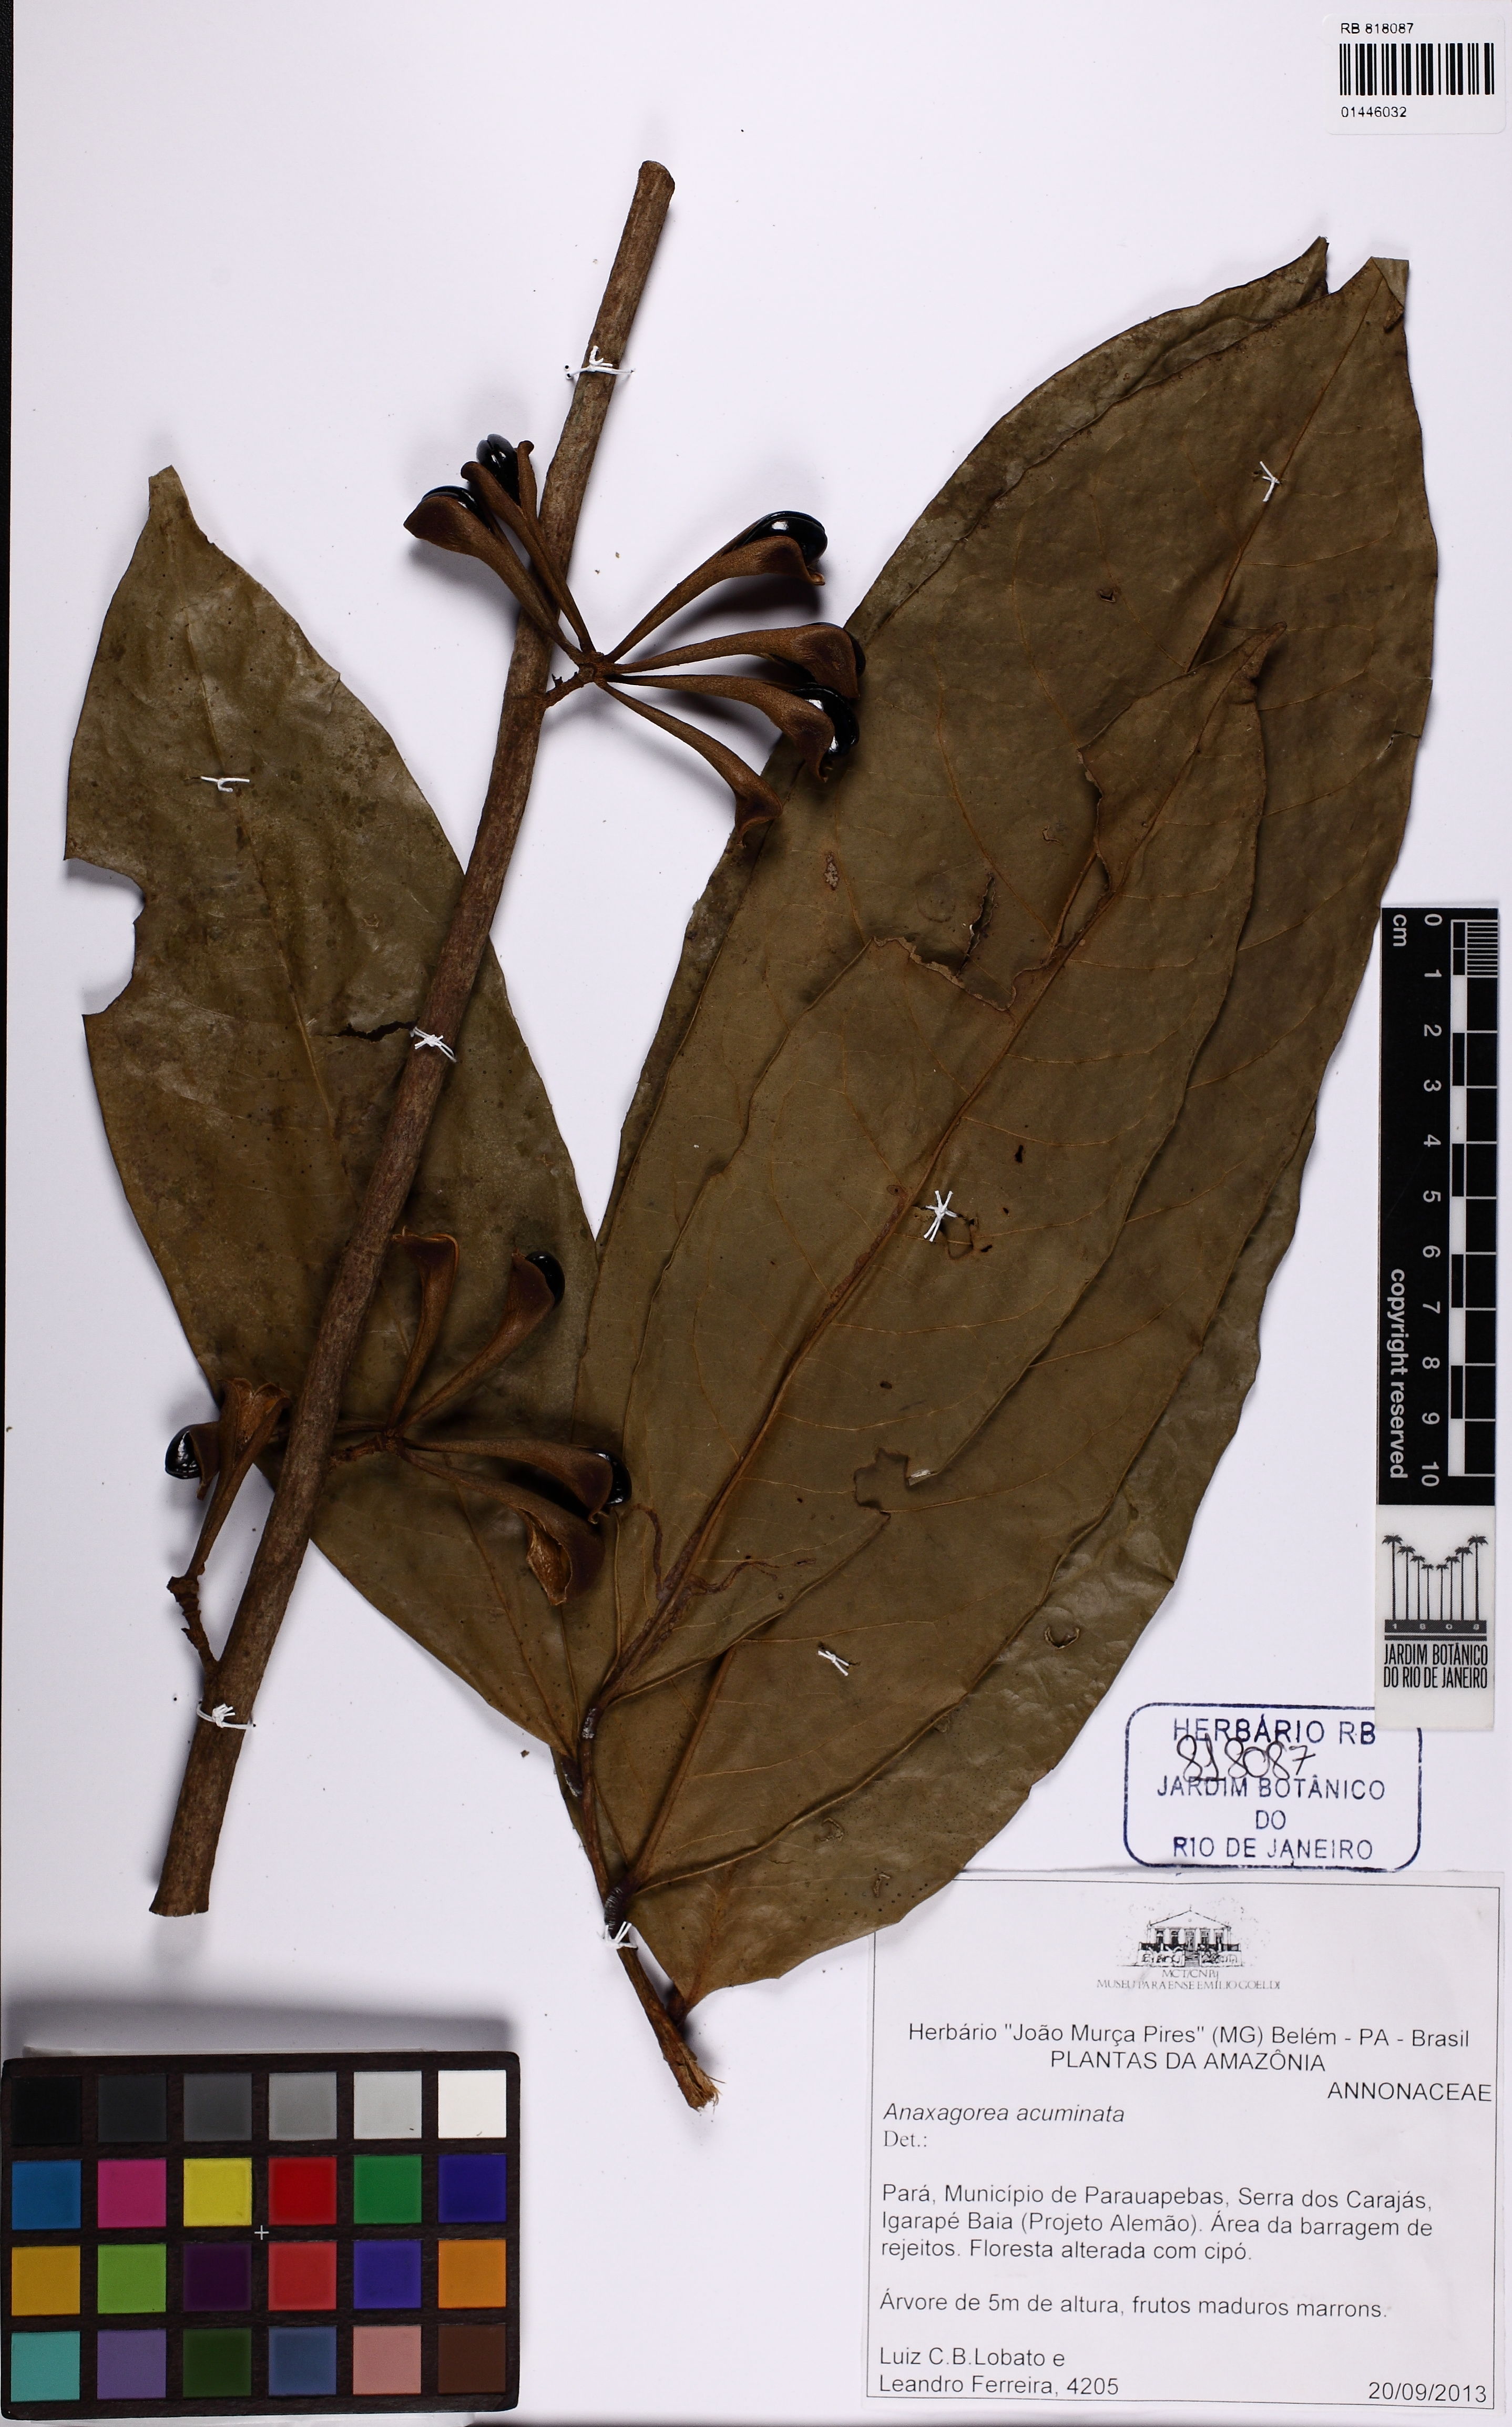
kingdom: Plantae
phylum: Tracheophyta
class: Magnoliopsida
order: Magnoliales
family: Annonaceae
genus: Anaxagorea
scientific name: Anaxagorea acuminata
